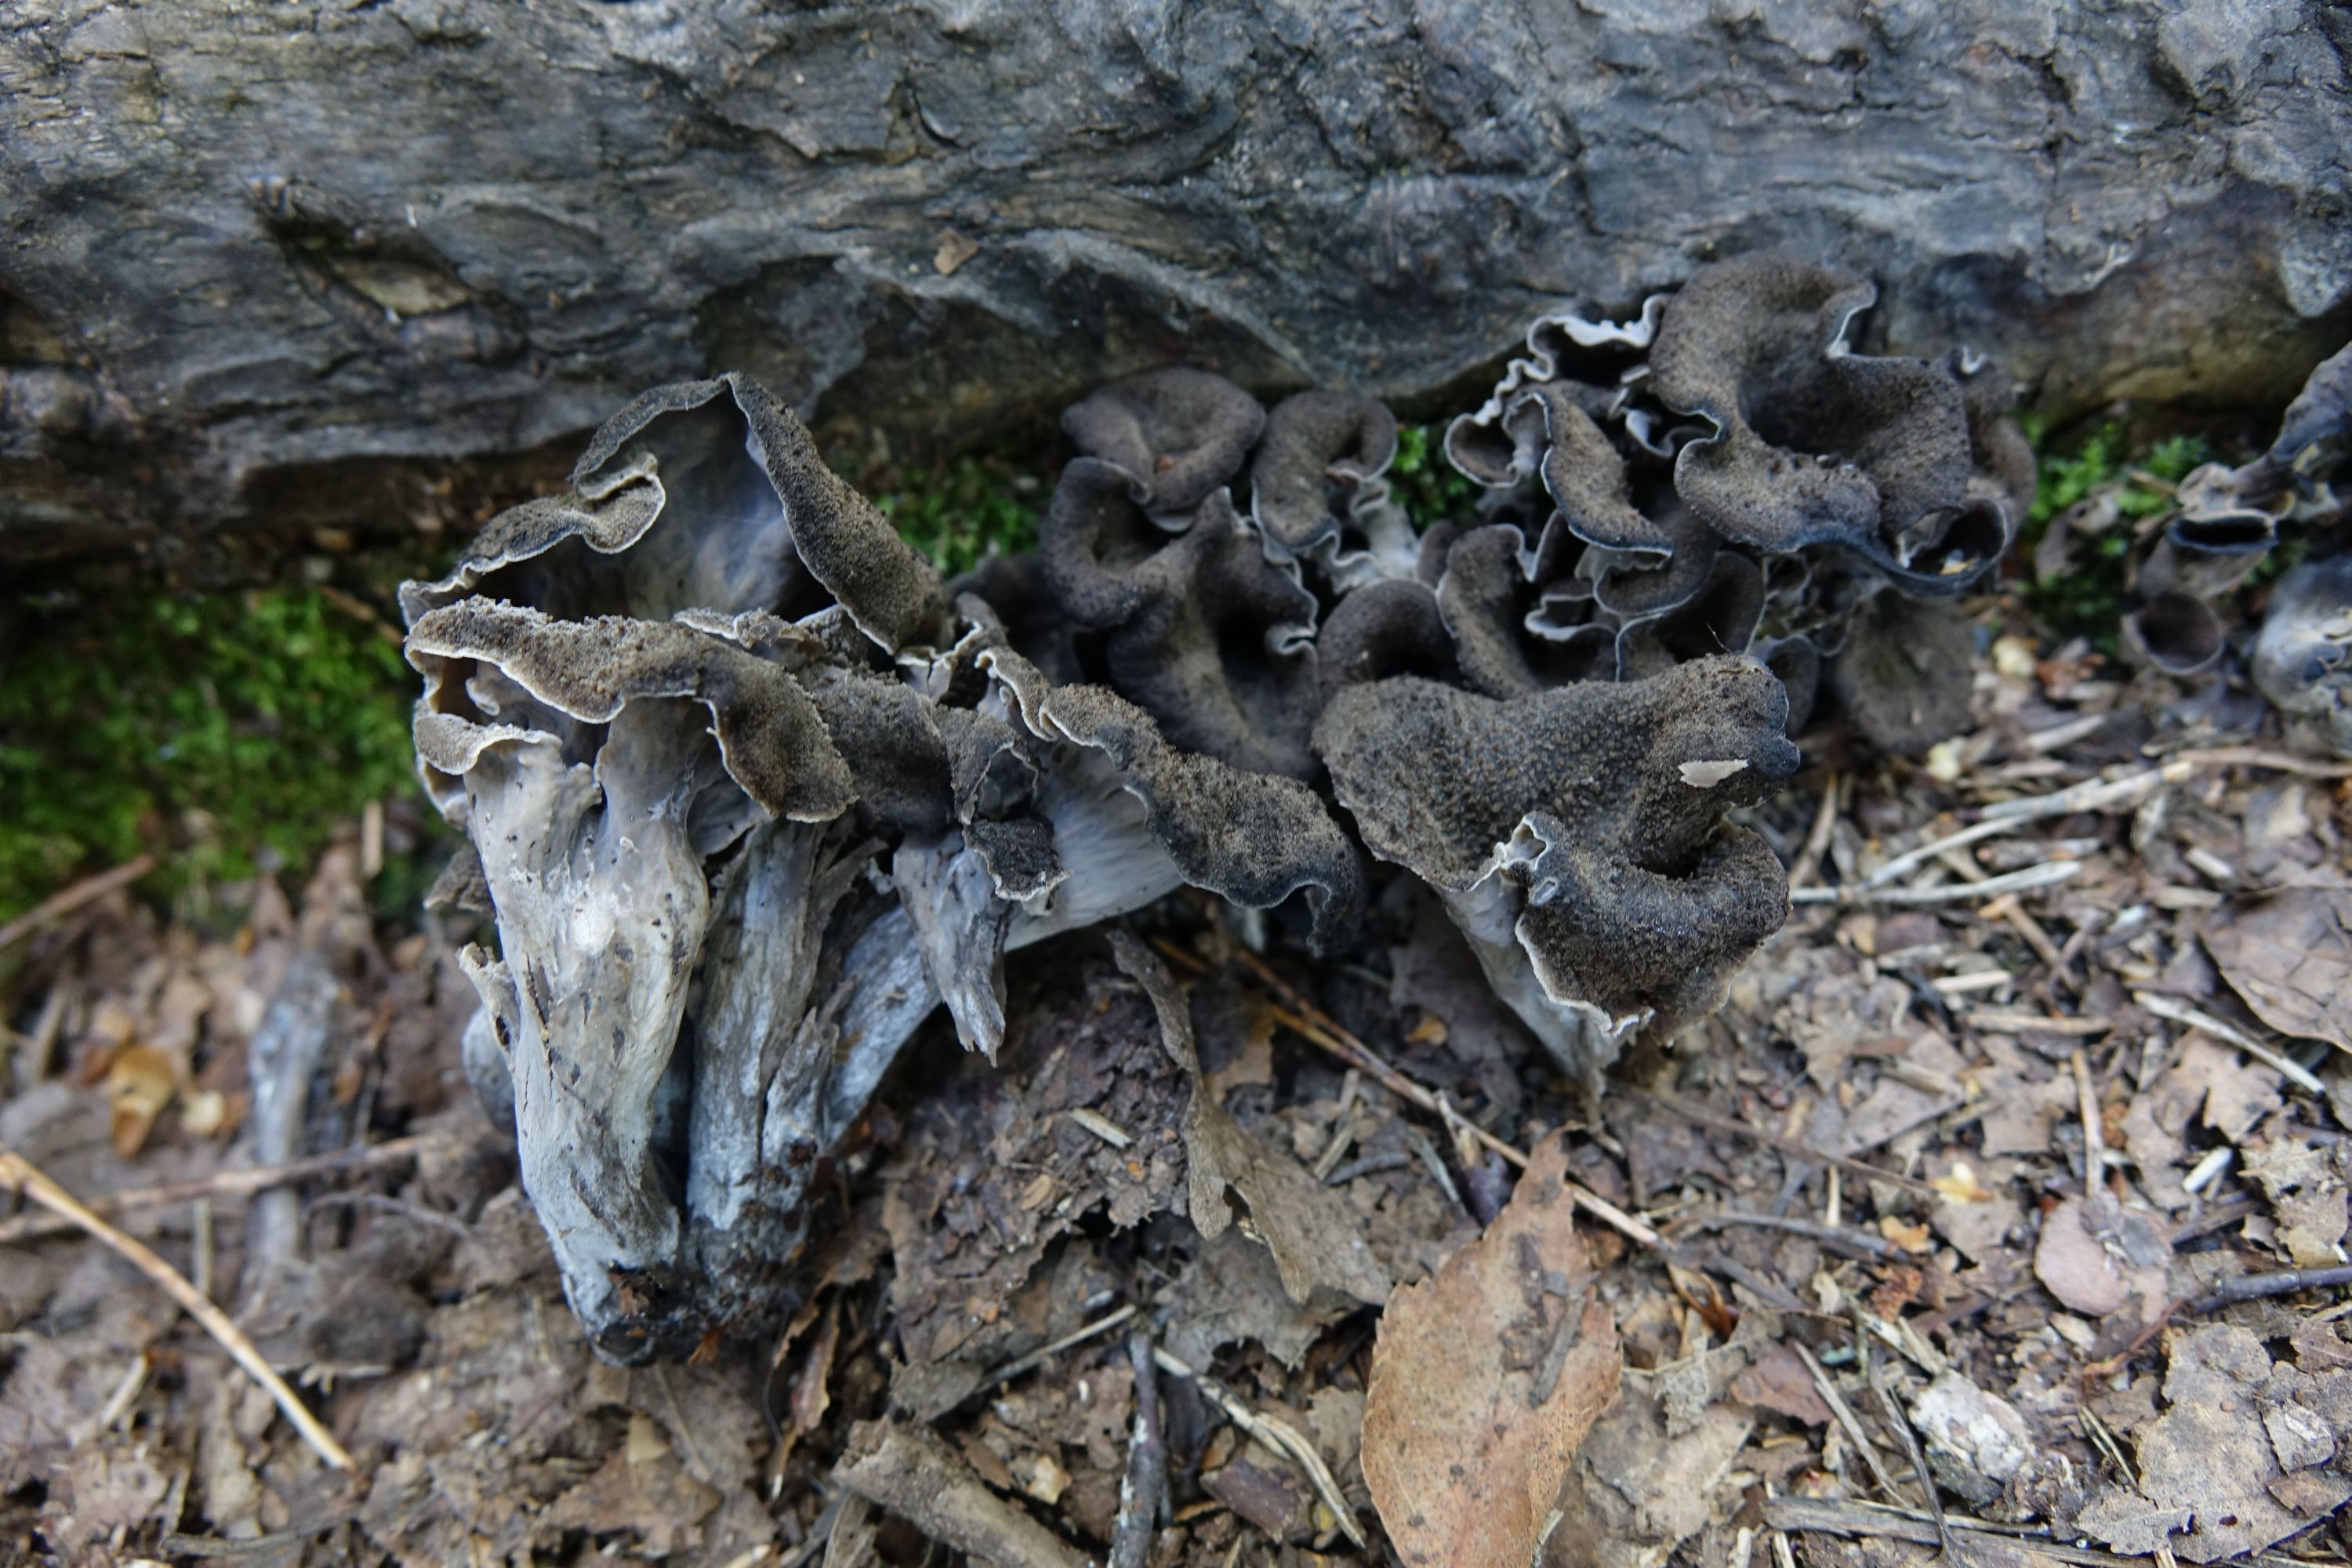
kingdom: Fungi
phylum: Basidiomycota
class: Agaricomycetes
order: Cantharellales
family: Hydnaceae
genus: Craterellus
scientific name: Craterellus cornucopioides
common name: Horn of plenty
